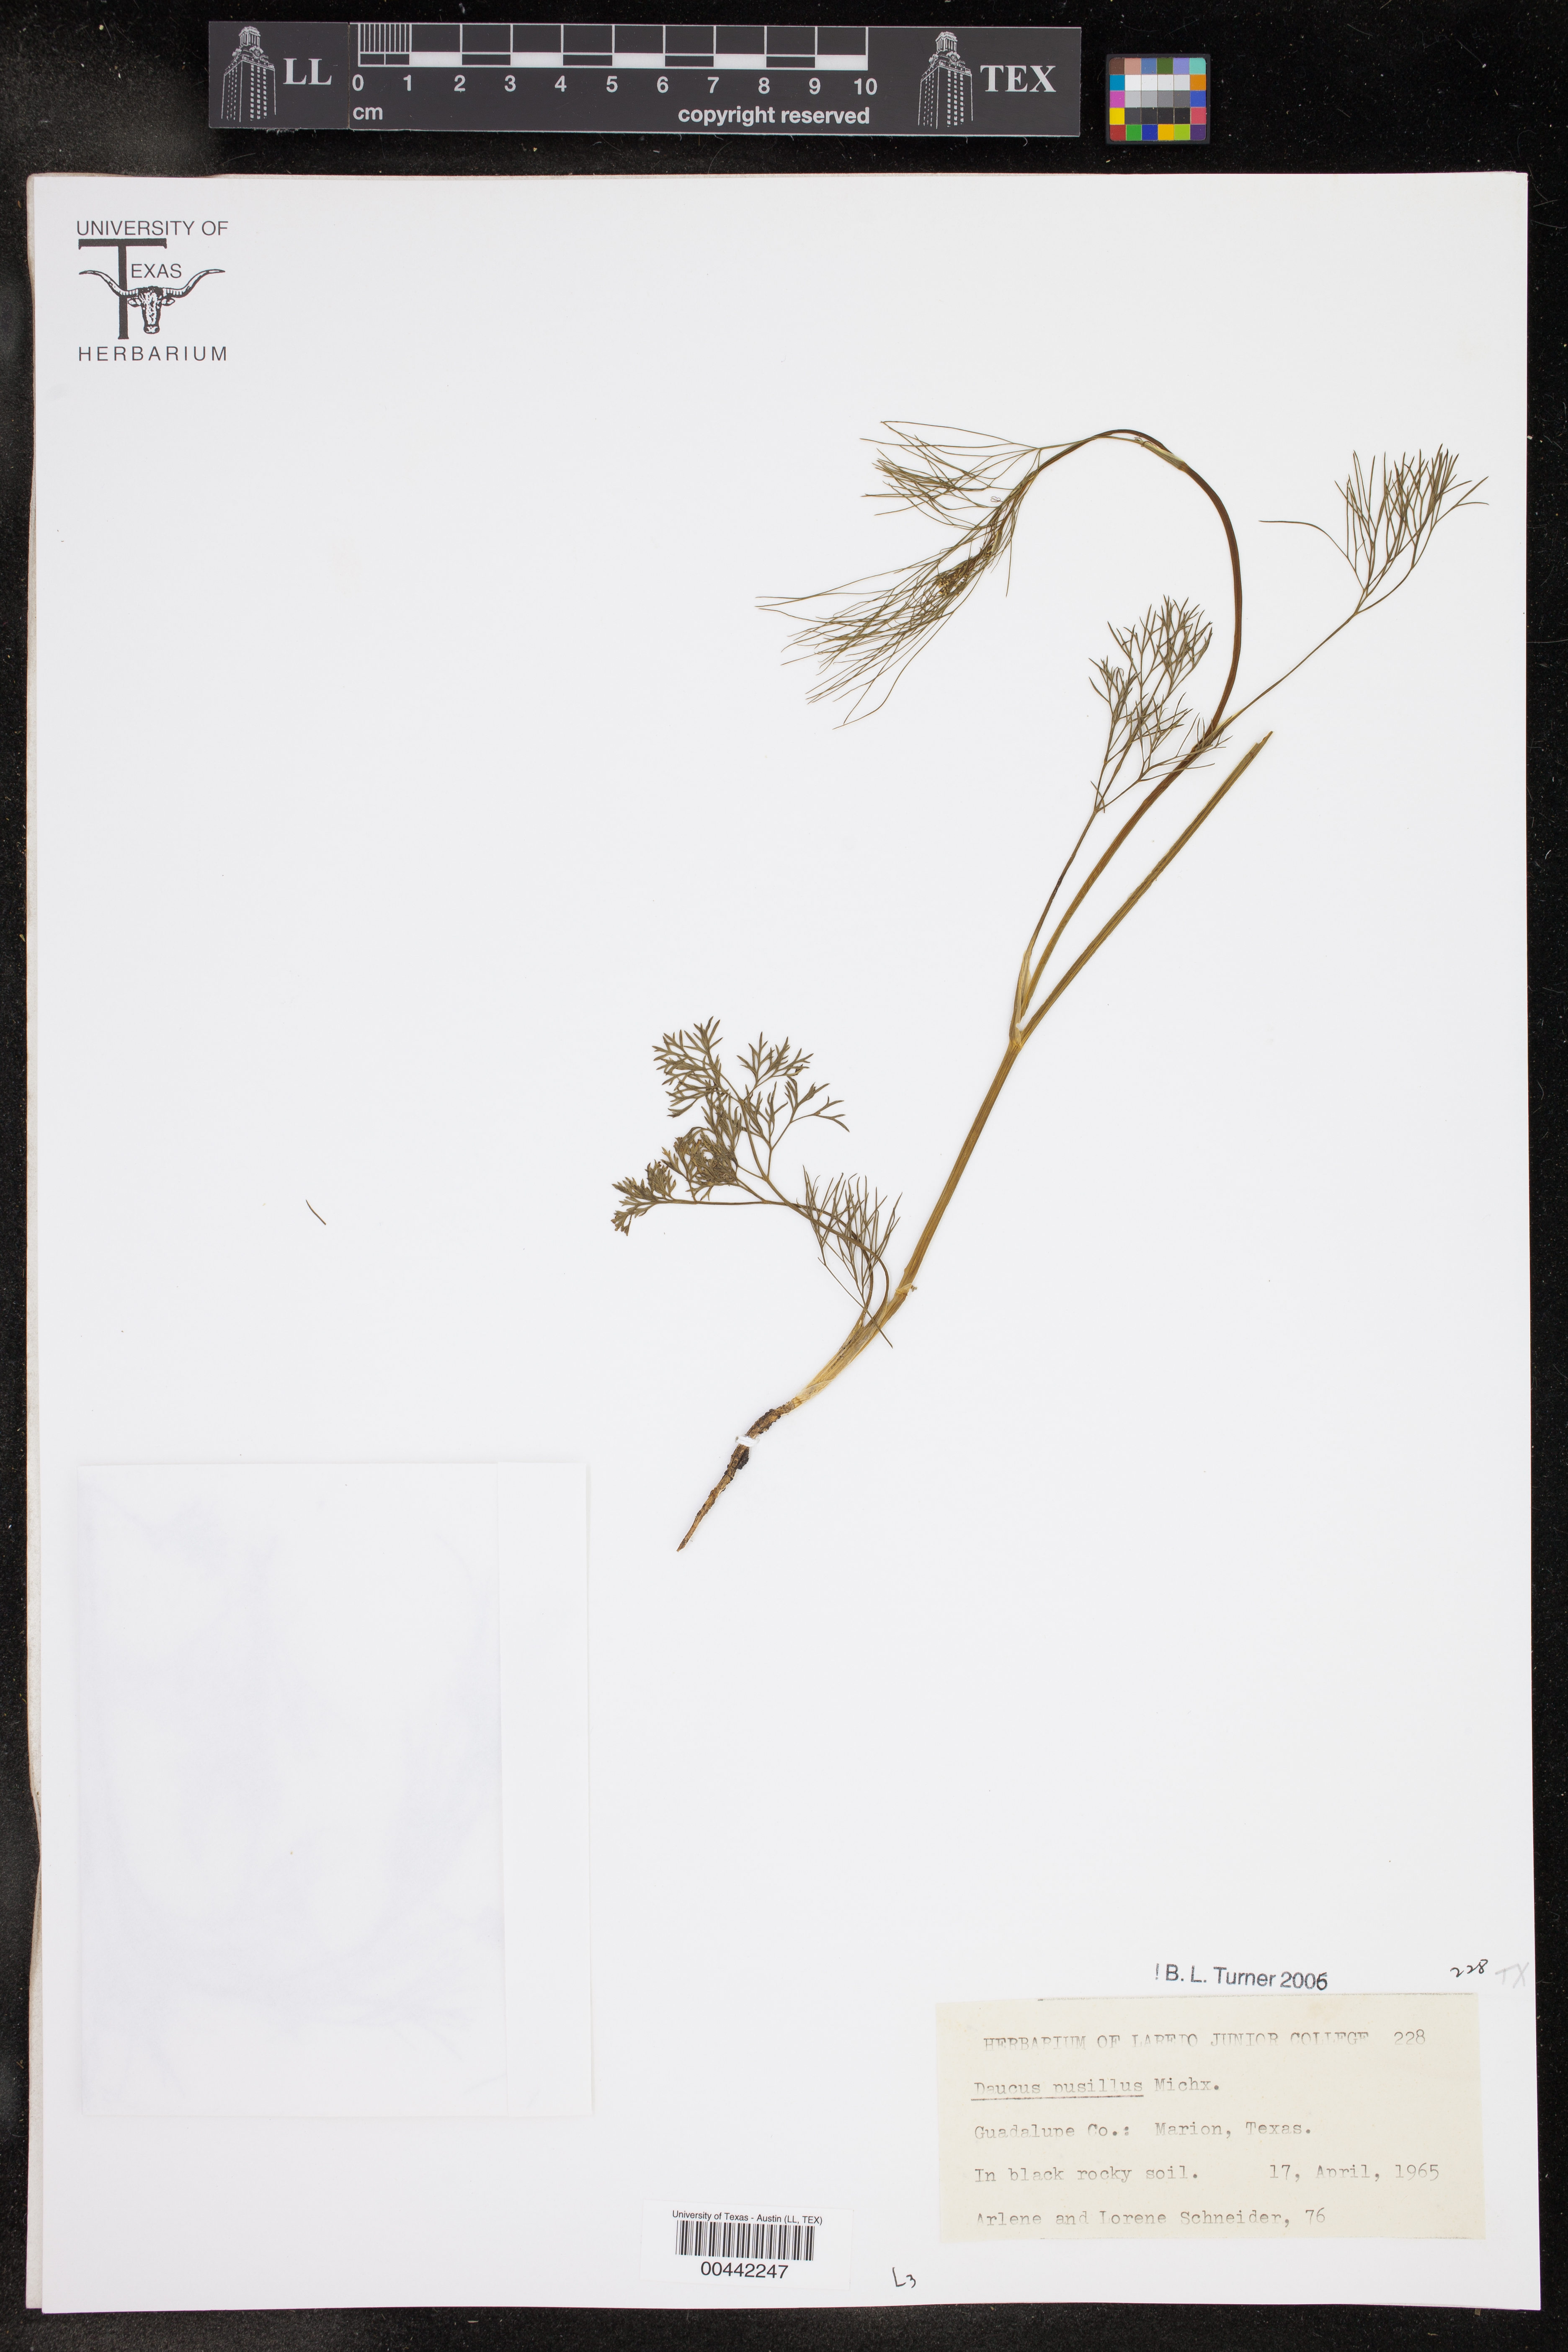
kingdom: Plantae
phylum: Tracheophyta
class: Magnoliopsida
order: Apiales
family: Apiaceae
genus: Daucus
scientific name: Daucus pusillus
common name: Southwest wild carrot
